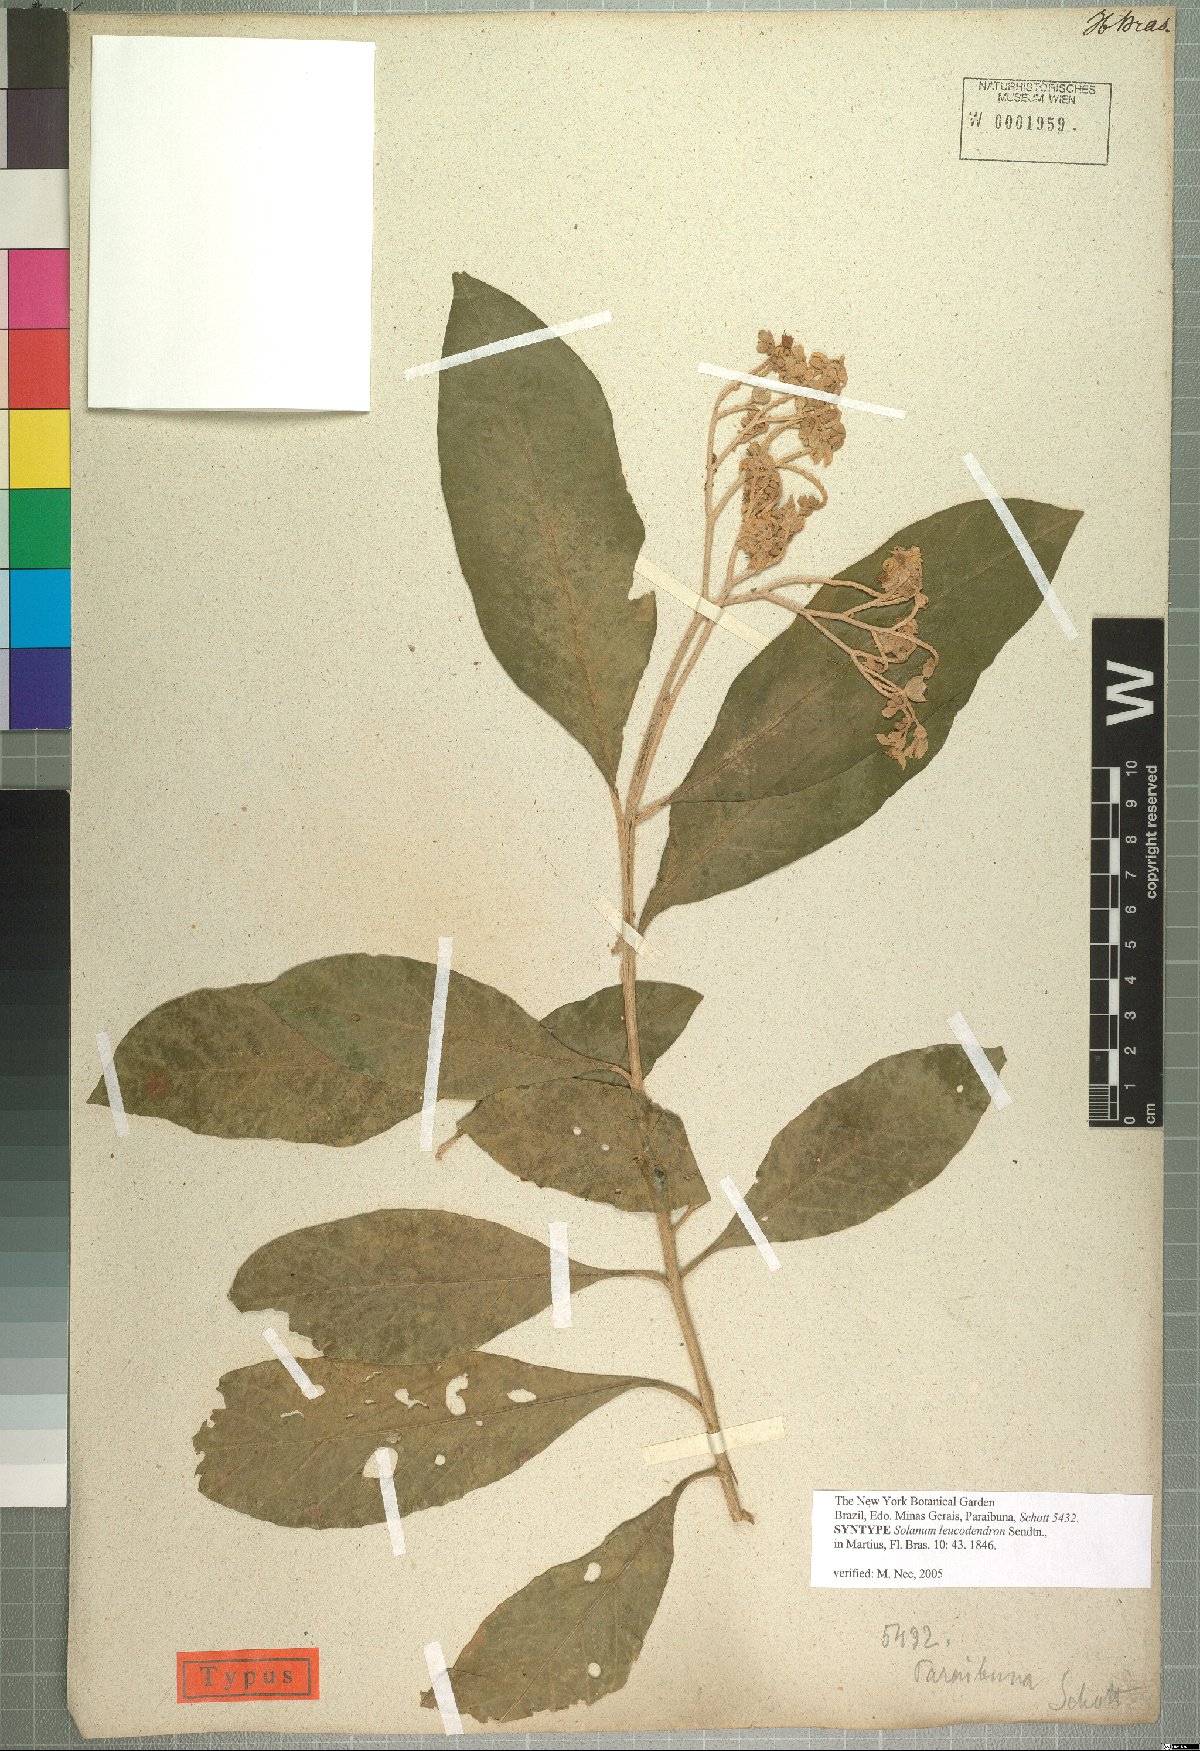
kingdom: Plantae
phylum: Tracheophyta
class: Magnoliopsida
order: Solanales
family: Solanaceae
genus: Solanum
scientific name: Solanum leucodendron
